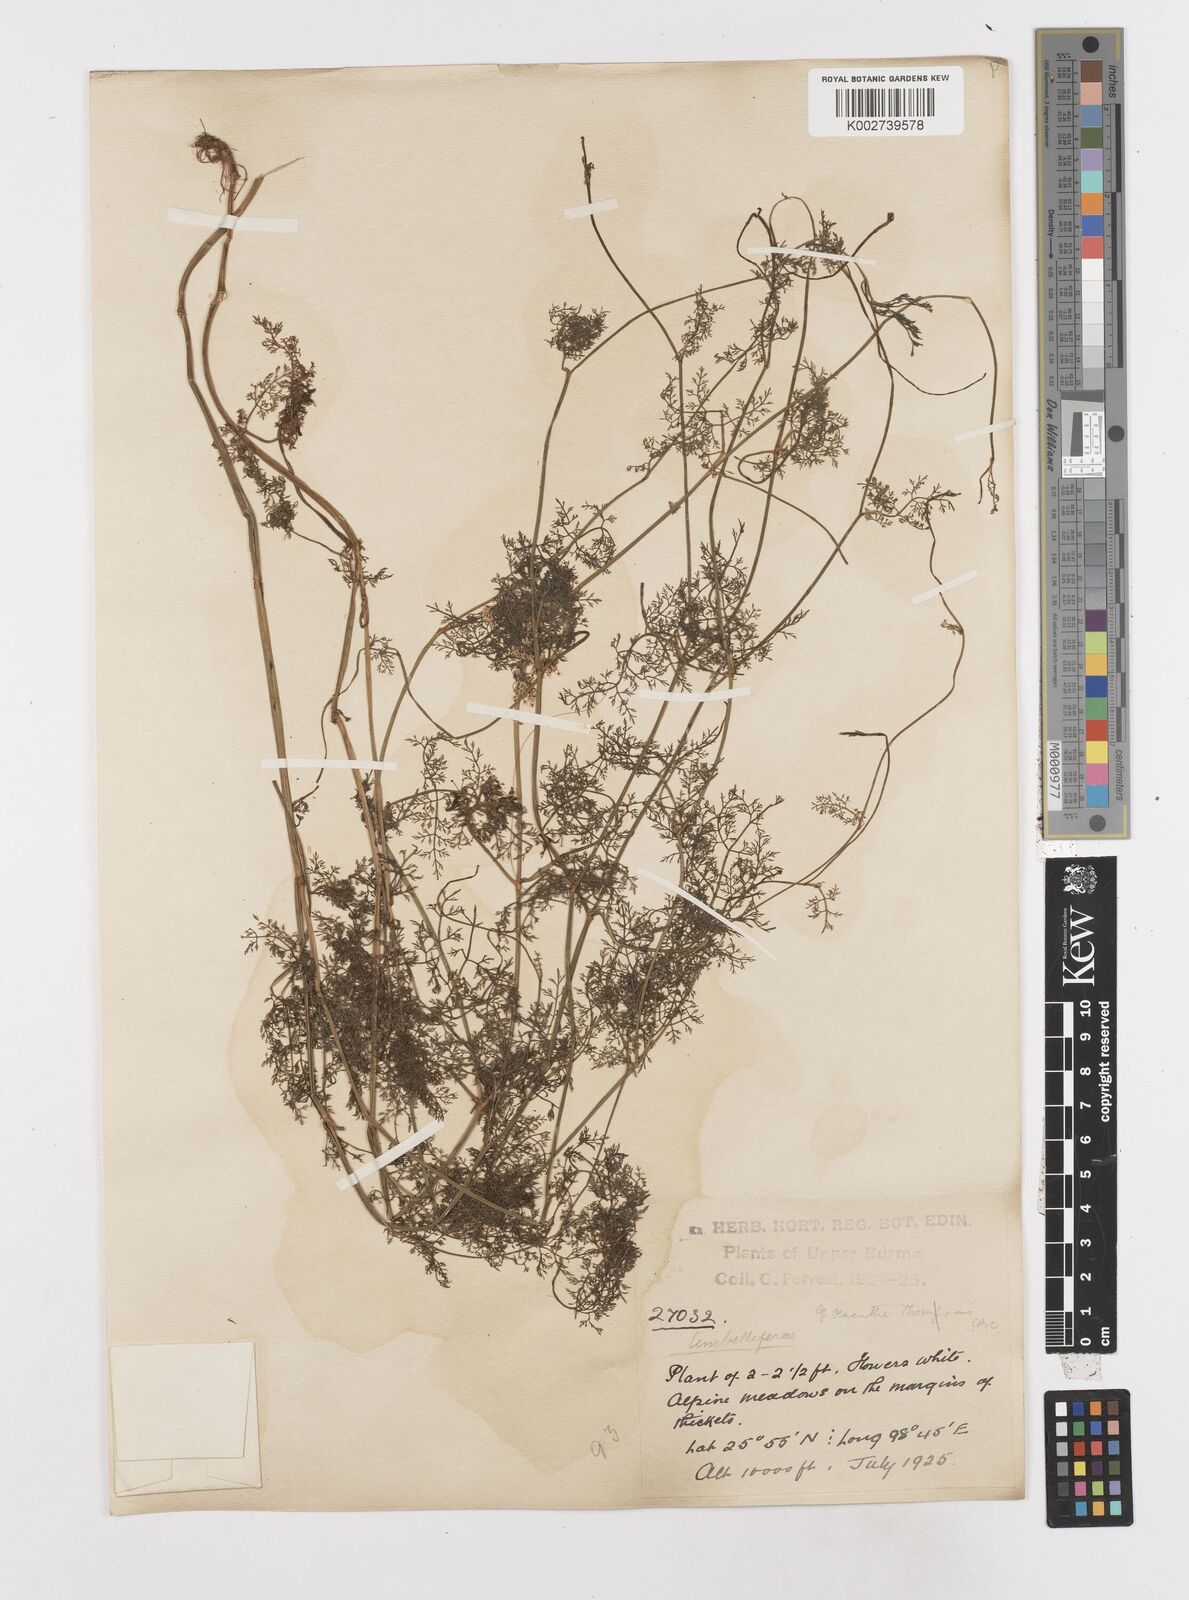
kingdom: Plantae
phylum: Tracheophyta
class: Magnoliopsida
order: Apiales
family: Apiaceae
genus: Oenanthe
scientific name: Oenanthe thomsonii
